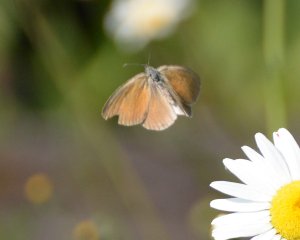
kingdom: Animalia
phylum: Arthropoda
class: Insecta
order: Lepidoptera
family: Nymphalidae
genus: Coenonympha
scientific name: Coenonympha tullia
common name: Large Heath
